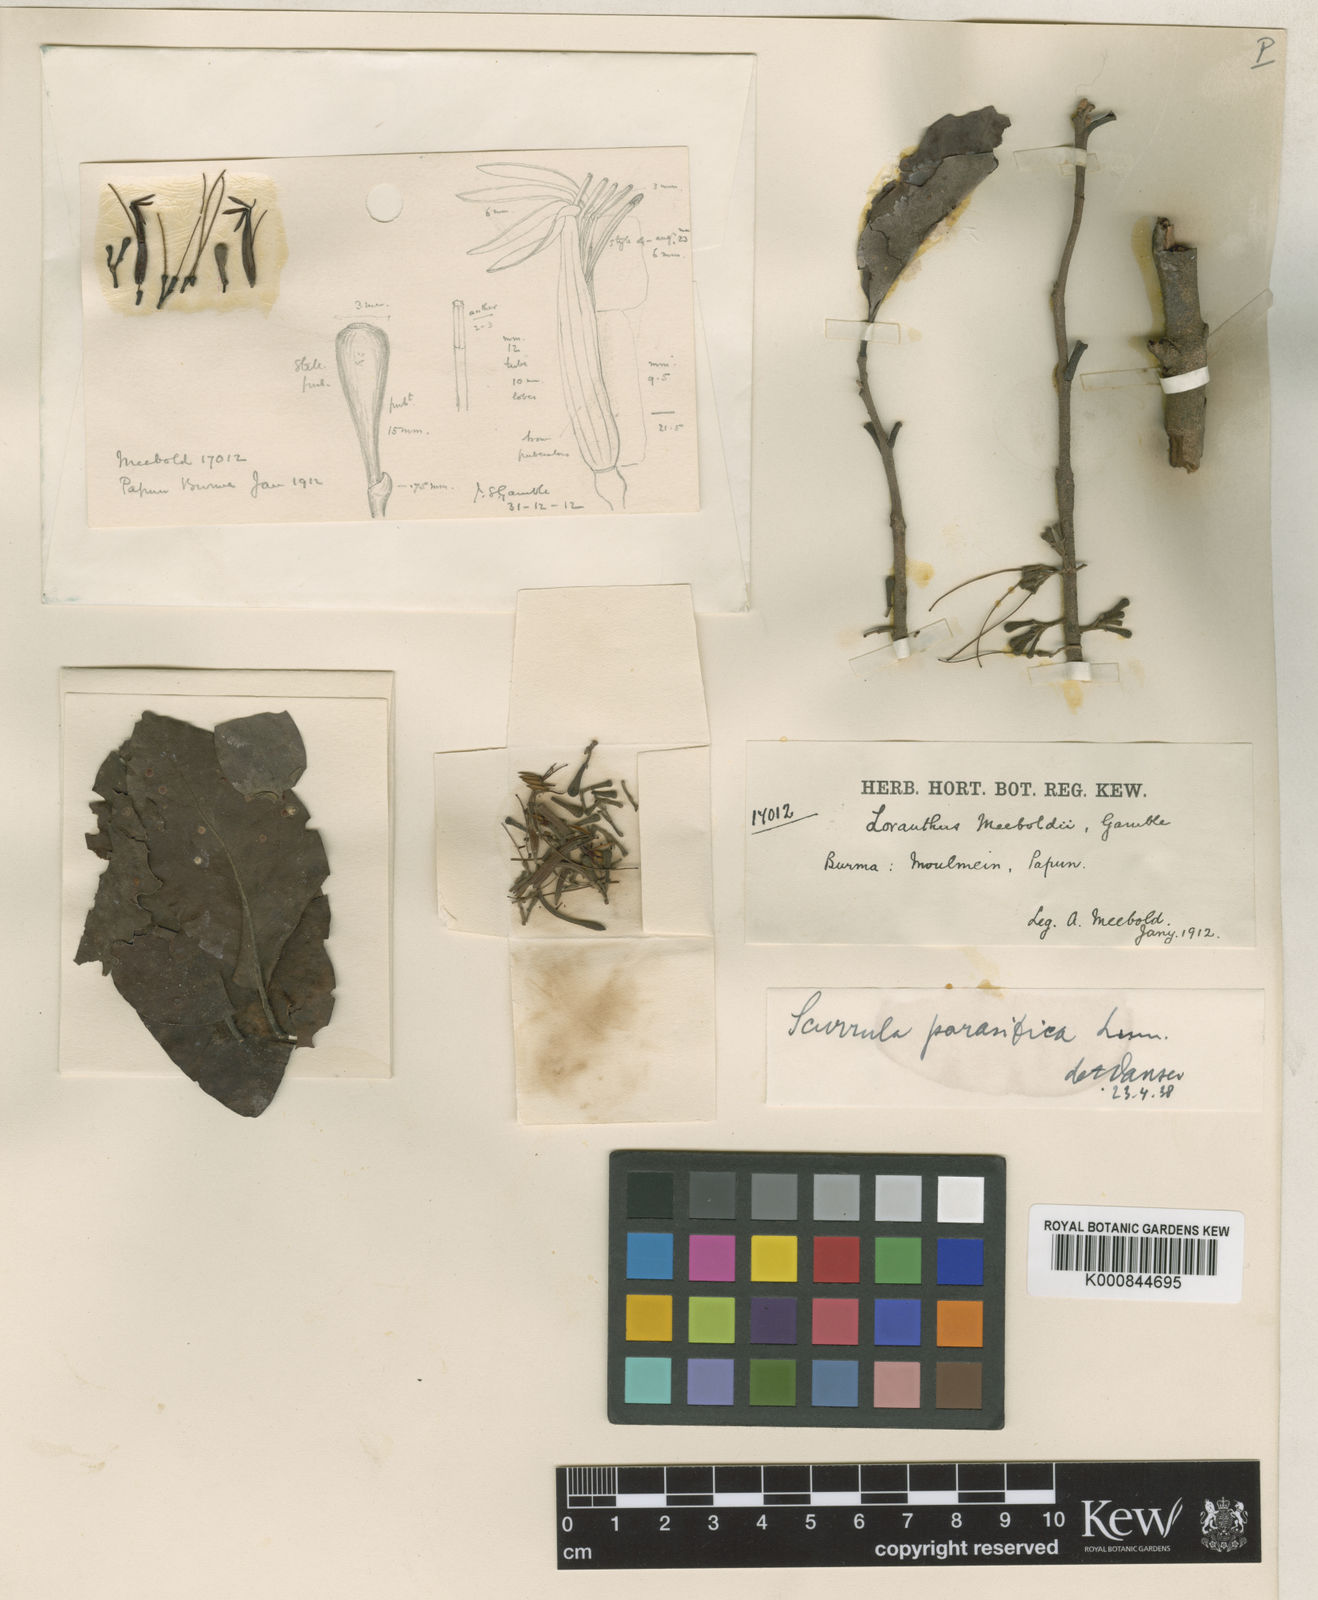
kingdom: Plantae
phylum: Tracheophyta
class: Magnoliopsida
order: Santalales
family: Loranthaceae
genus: Scurrula
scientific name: Scurrula parasitica
